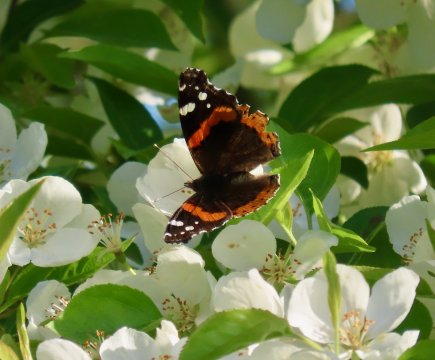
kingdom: Animalia
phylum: Arthropoda
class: Insecta
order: Lepidoptera
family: Nymphalidae
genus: Vanessa
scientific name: Vanessa atalanta
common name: Red Admiral
